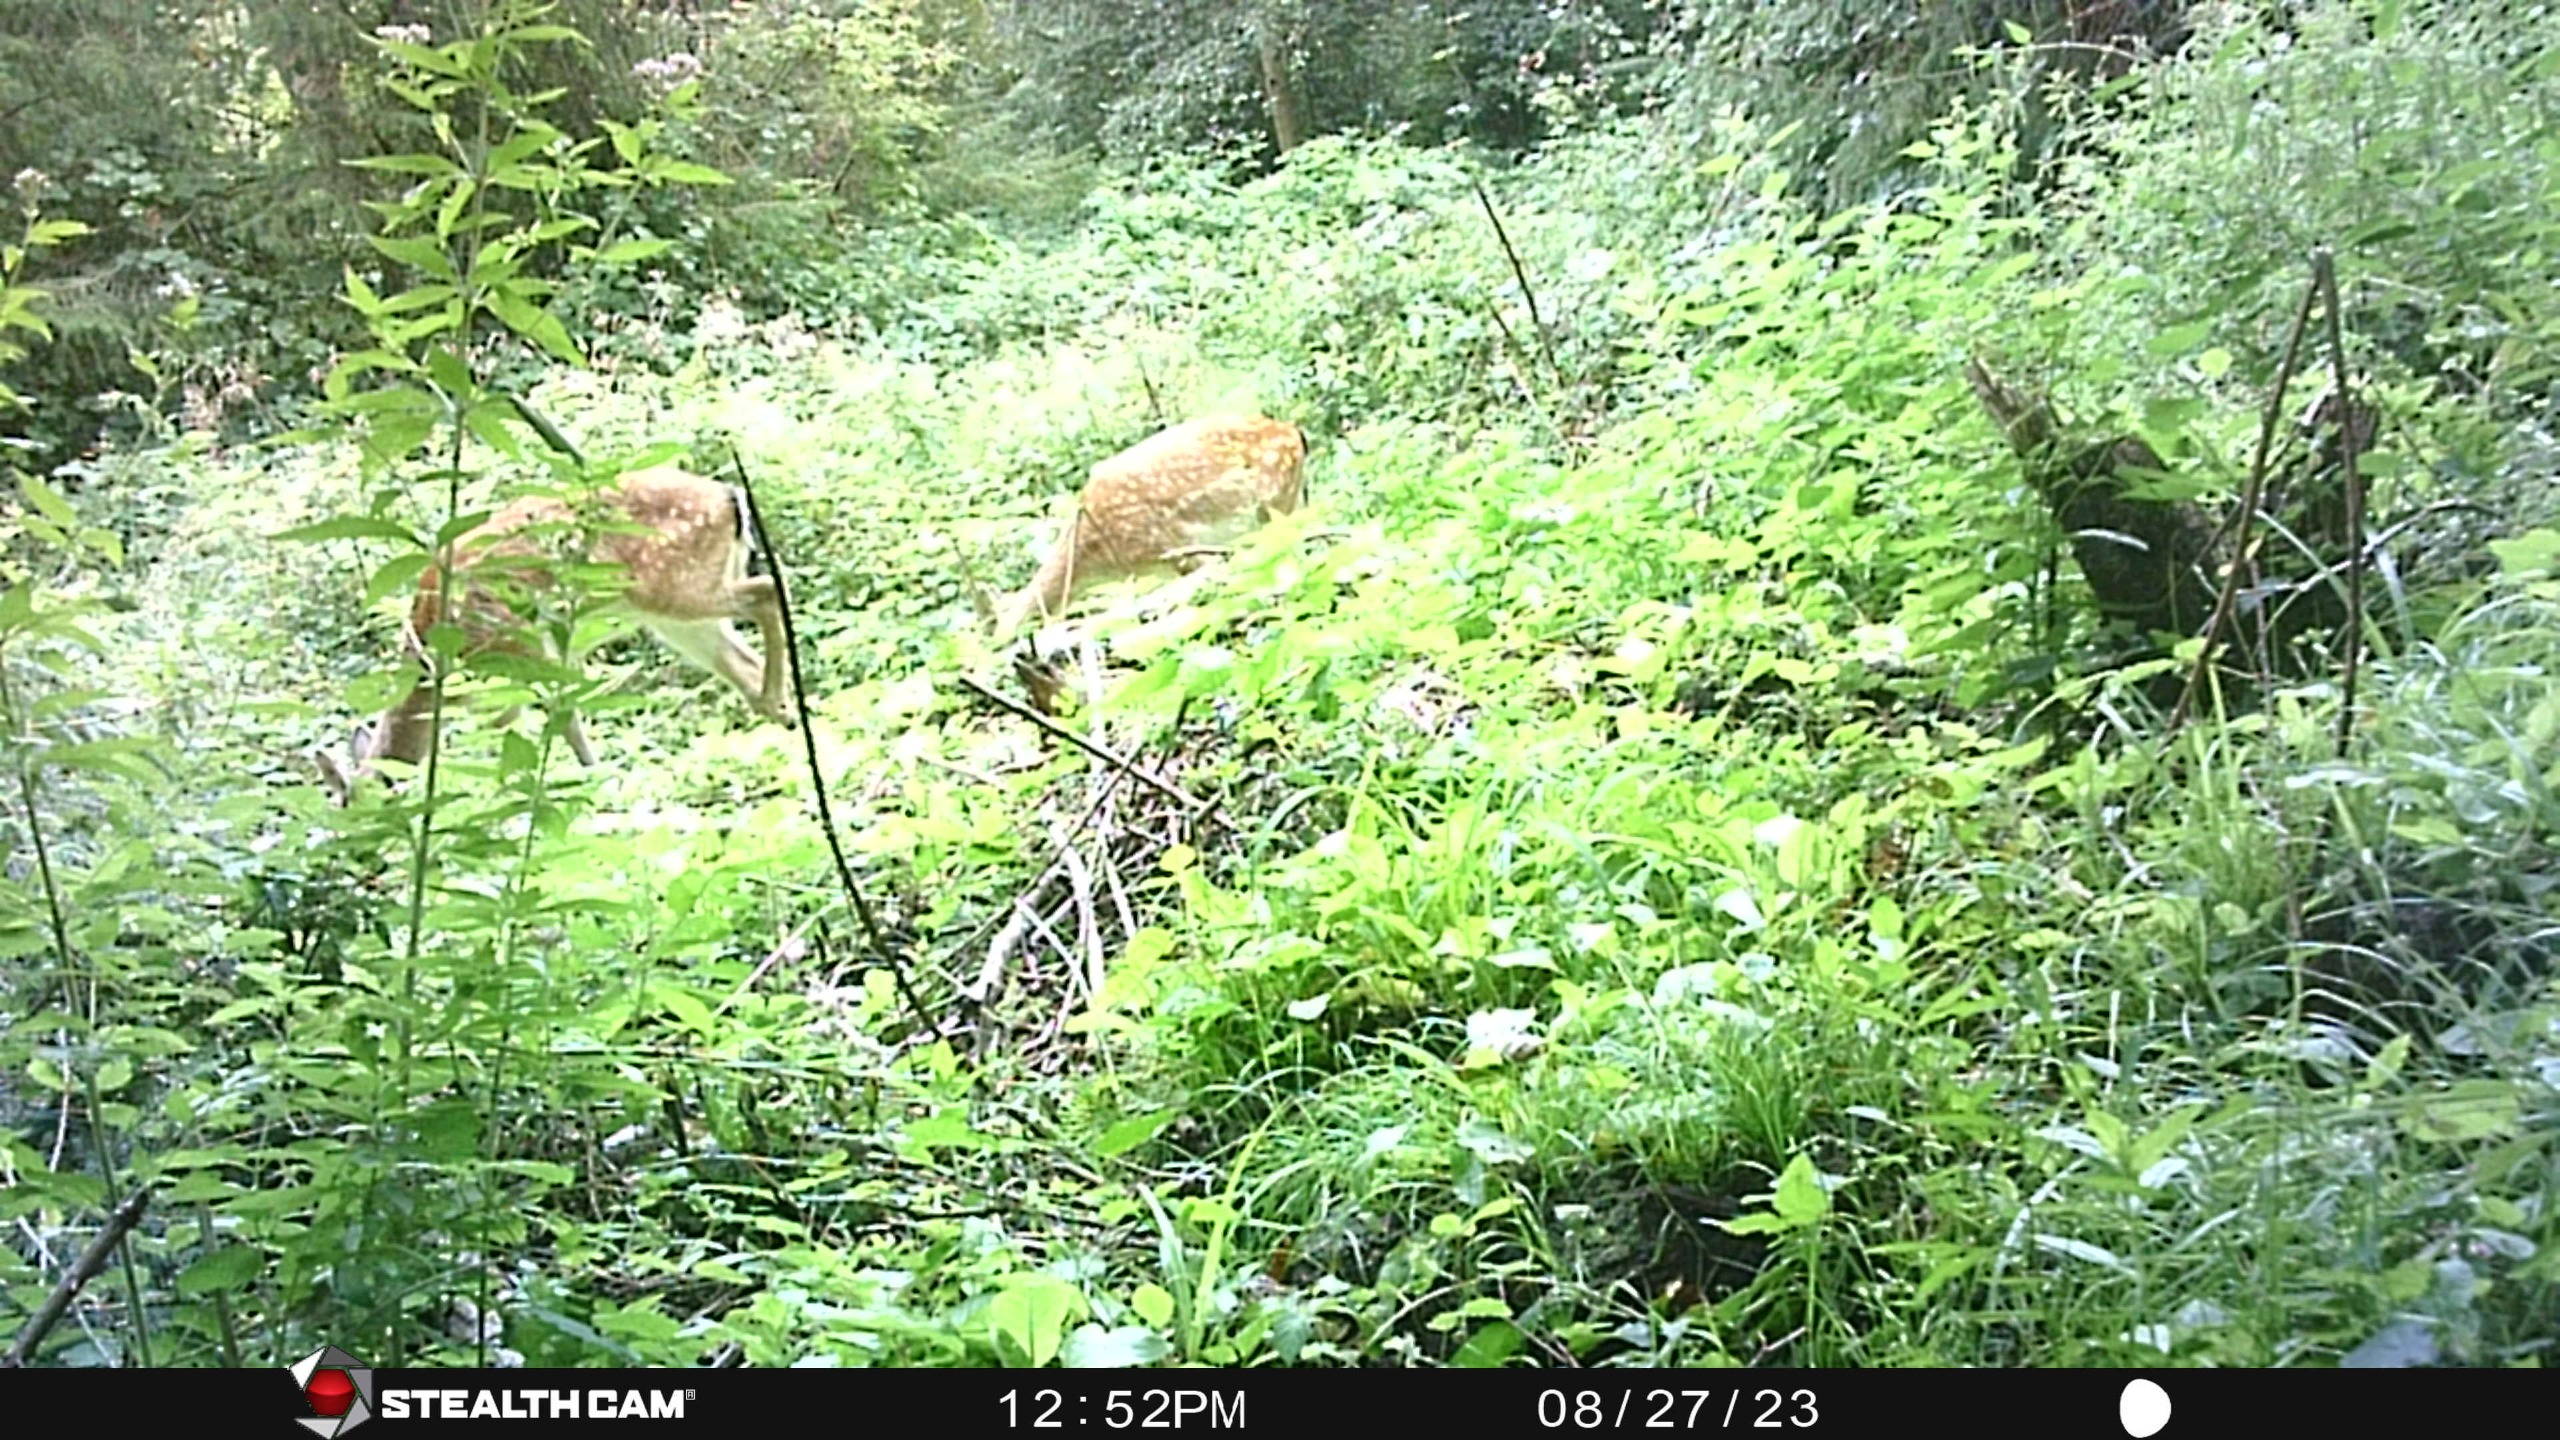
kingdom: Animalia
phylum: Chordata
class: Mammalia
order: Artiodactyla
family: Cervidae
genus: Dama
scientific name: Dama dama
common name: Dådyr
